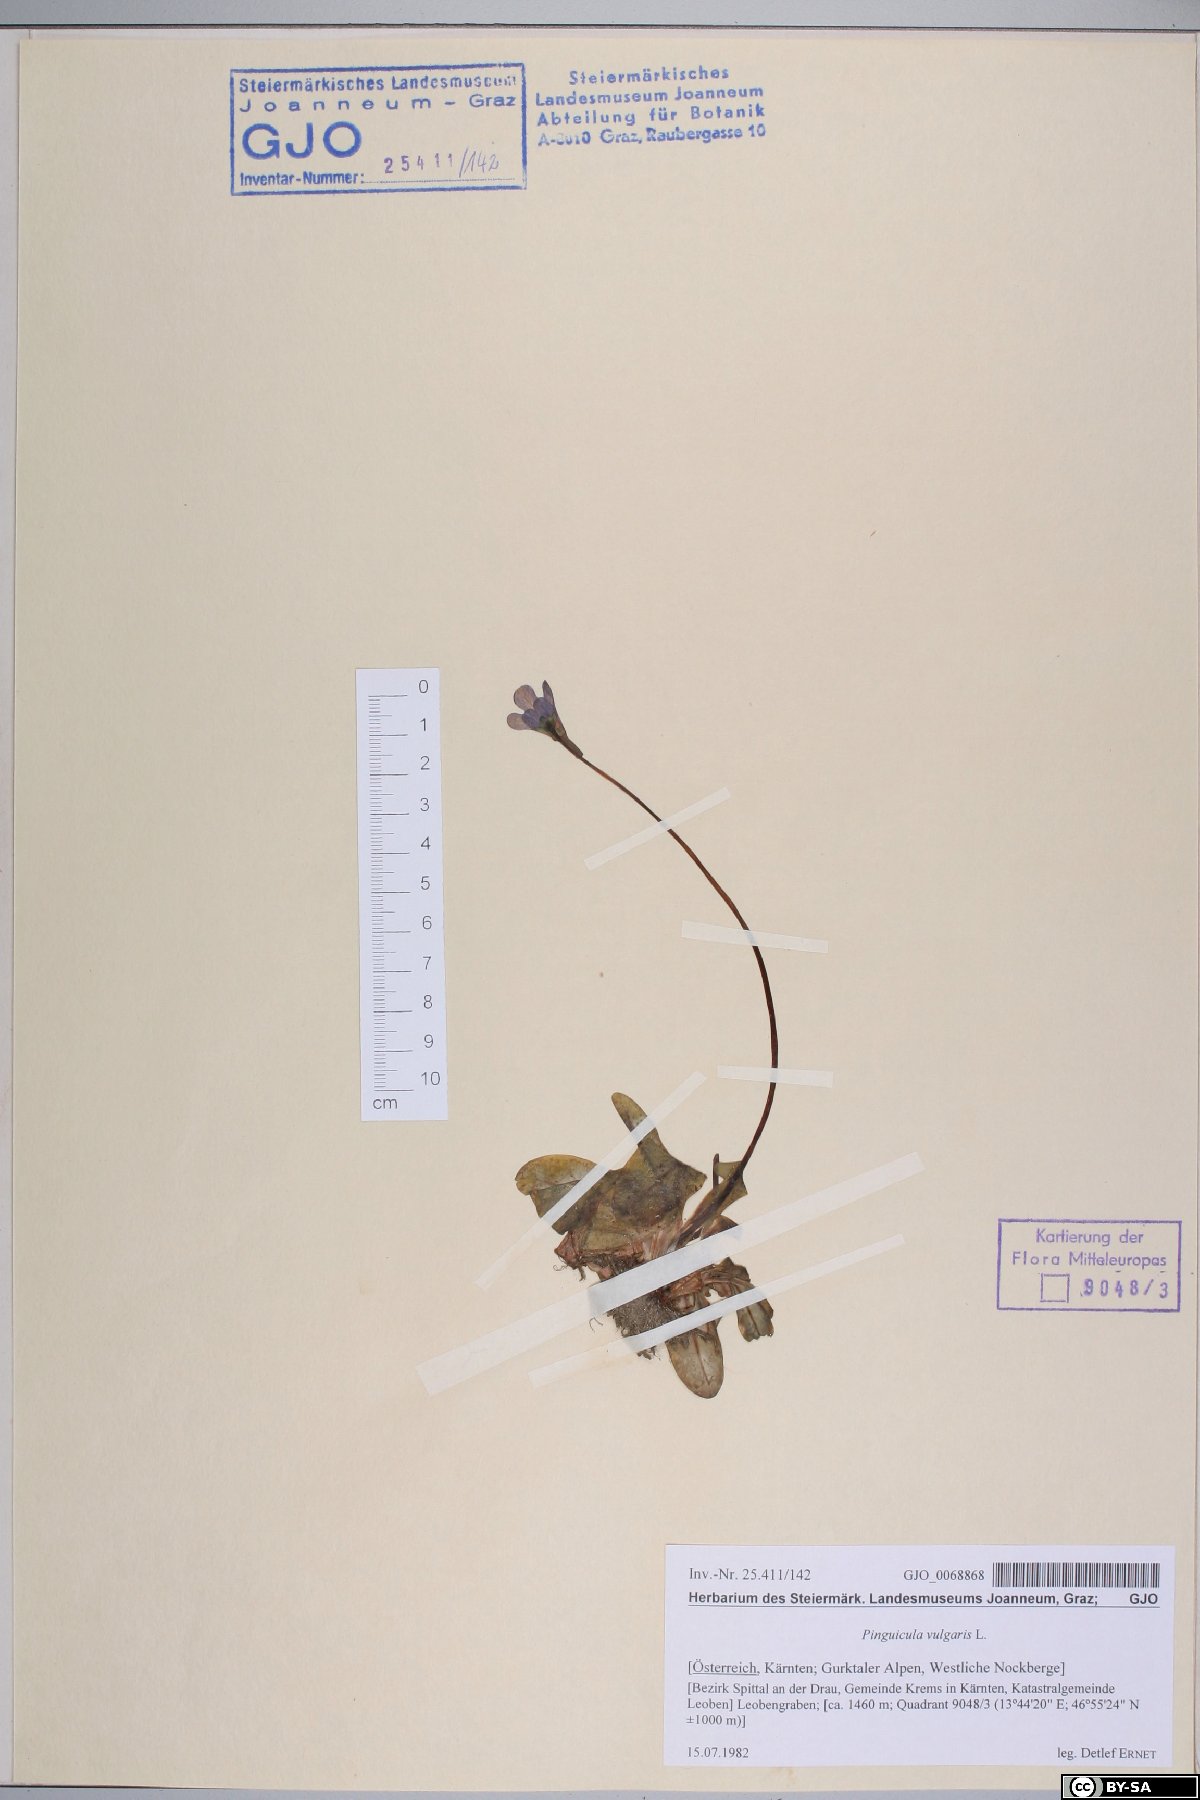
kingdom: Plantae
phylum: Tracheophyta
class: Magnoliopsida
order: Lamiales
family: Lentibulariaceae
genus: Pinguicula
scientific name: Pinguicula vulgaris
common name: Common butterwort
